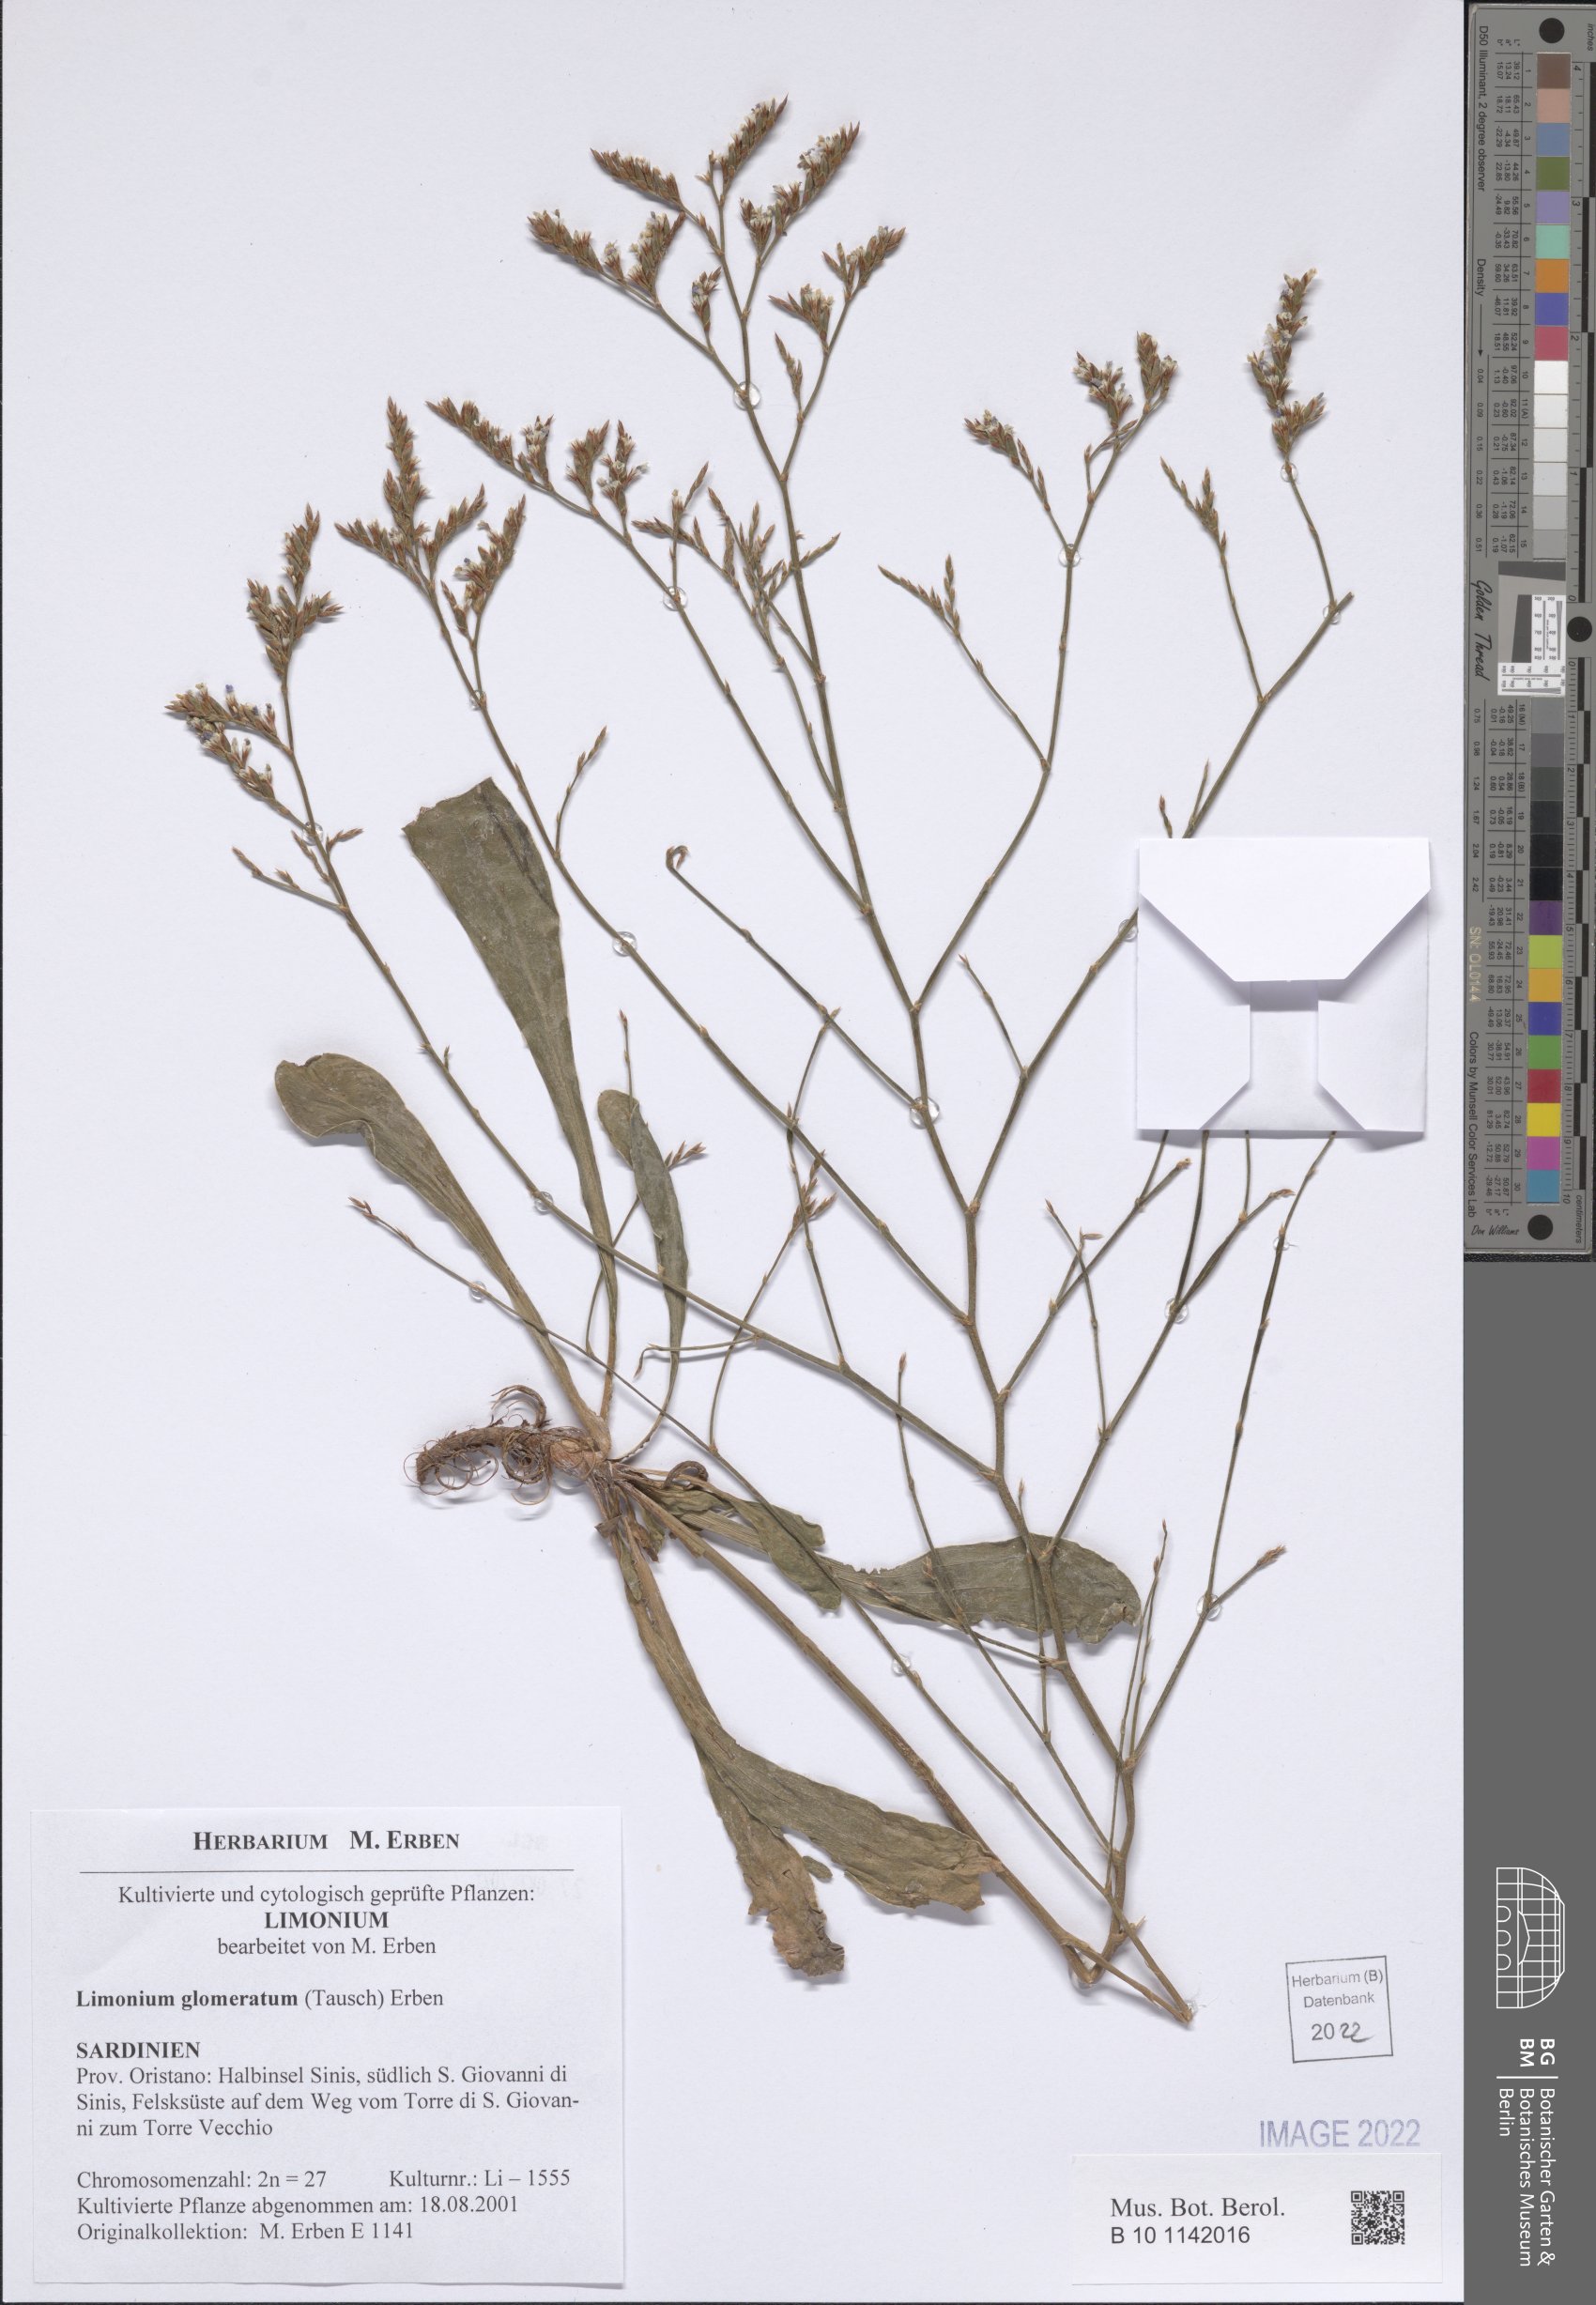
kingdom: Plantae
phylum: Tracheophyta
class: Magnoliopsida
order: Caryophyllales
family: Plumbaginaceae
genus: Limonium
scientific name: Limonium glomeratum
